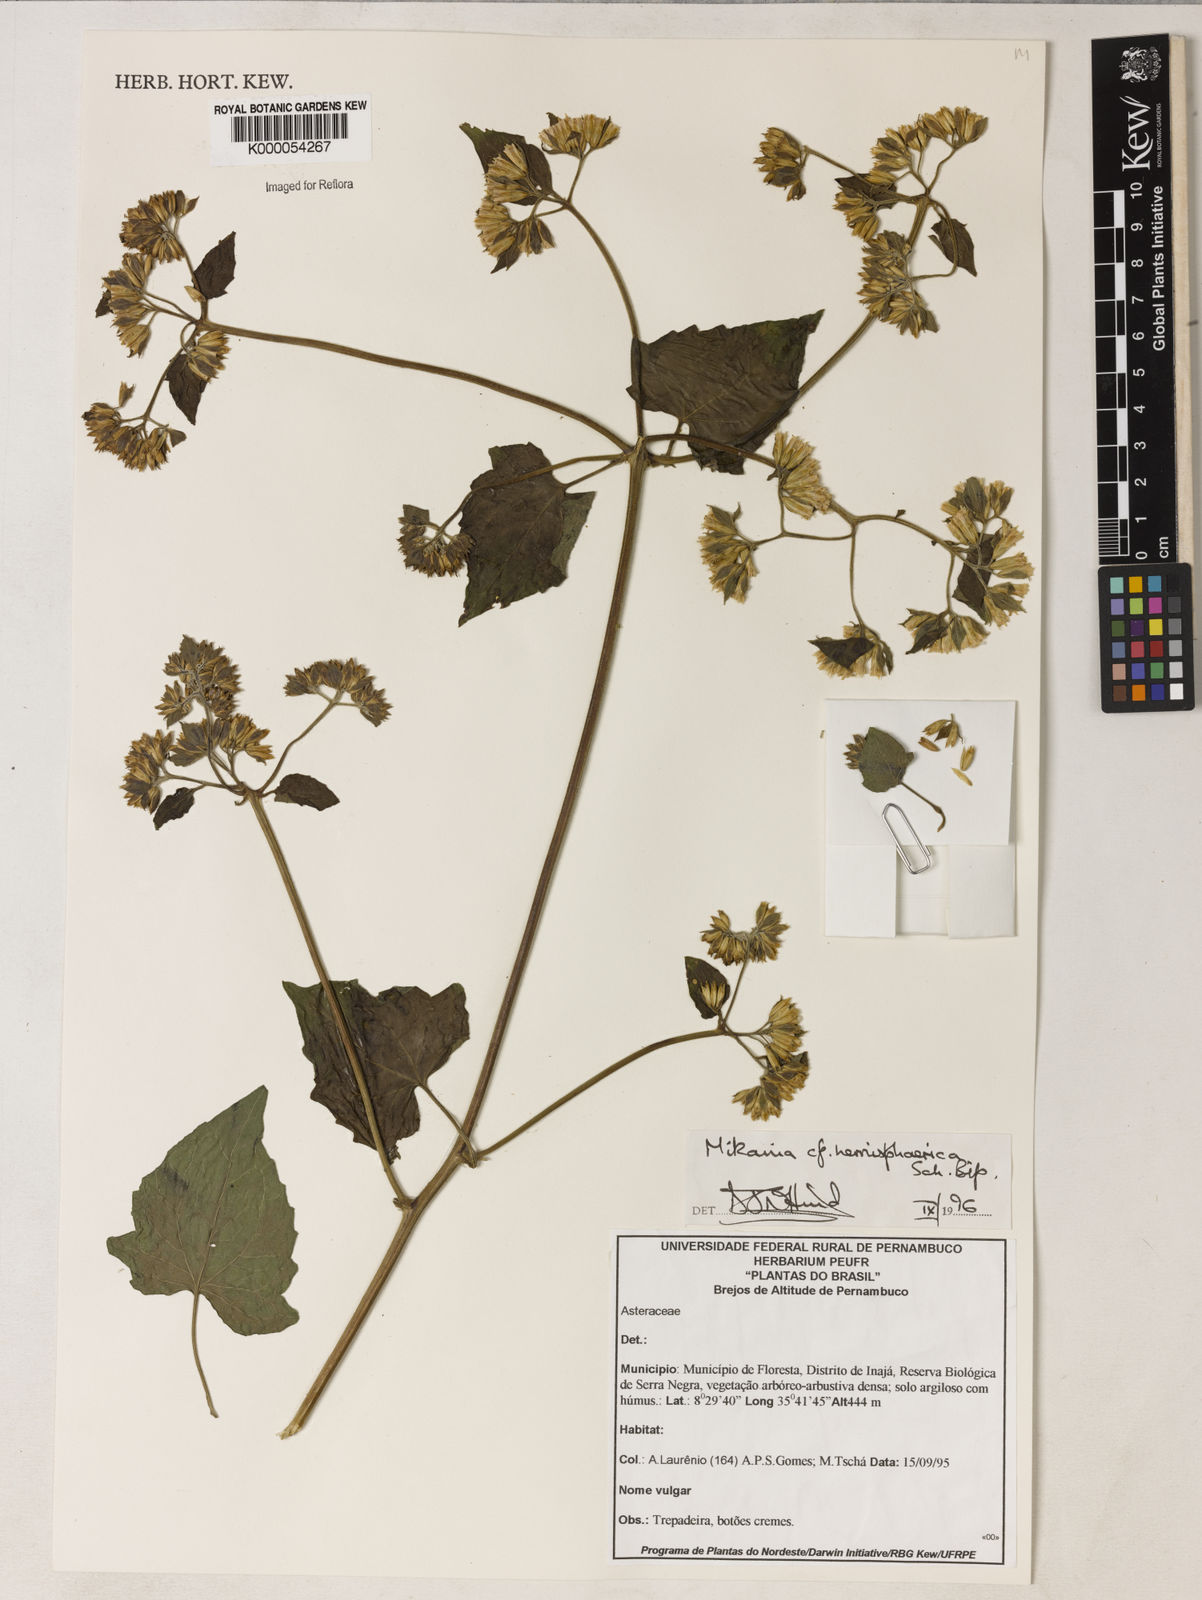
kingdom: Plantae
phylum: Tracheophyta
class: Magnoliopsida
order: Asterales
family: Asteraceae
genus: Mikania
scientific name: Mikania hemisphaerica
